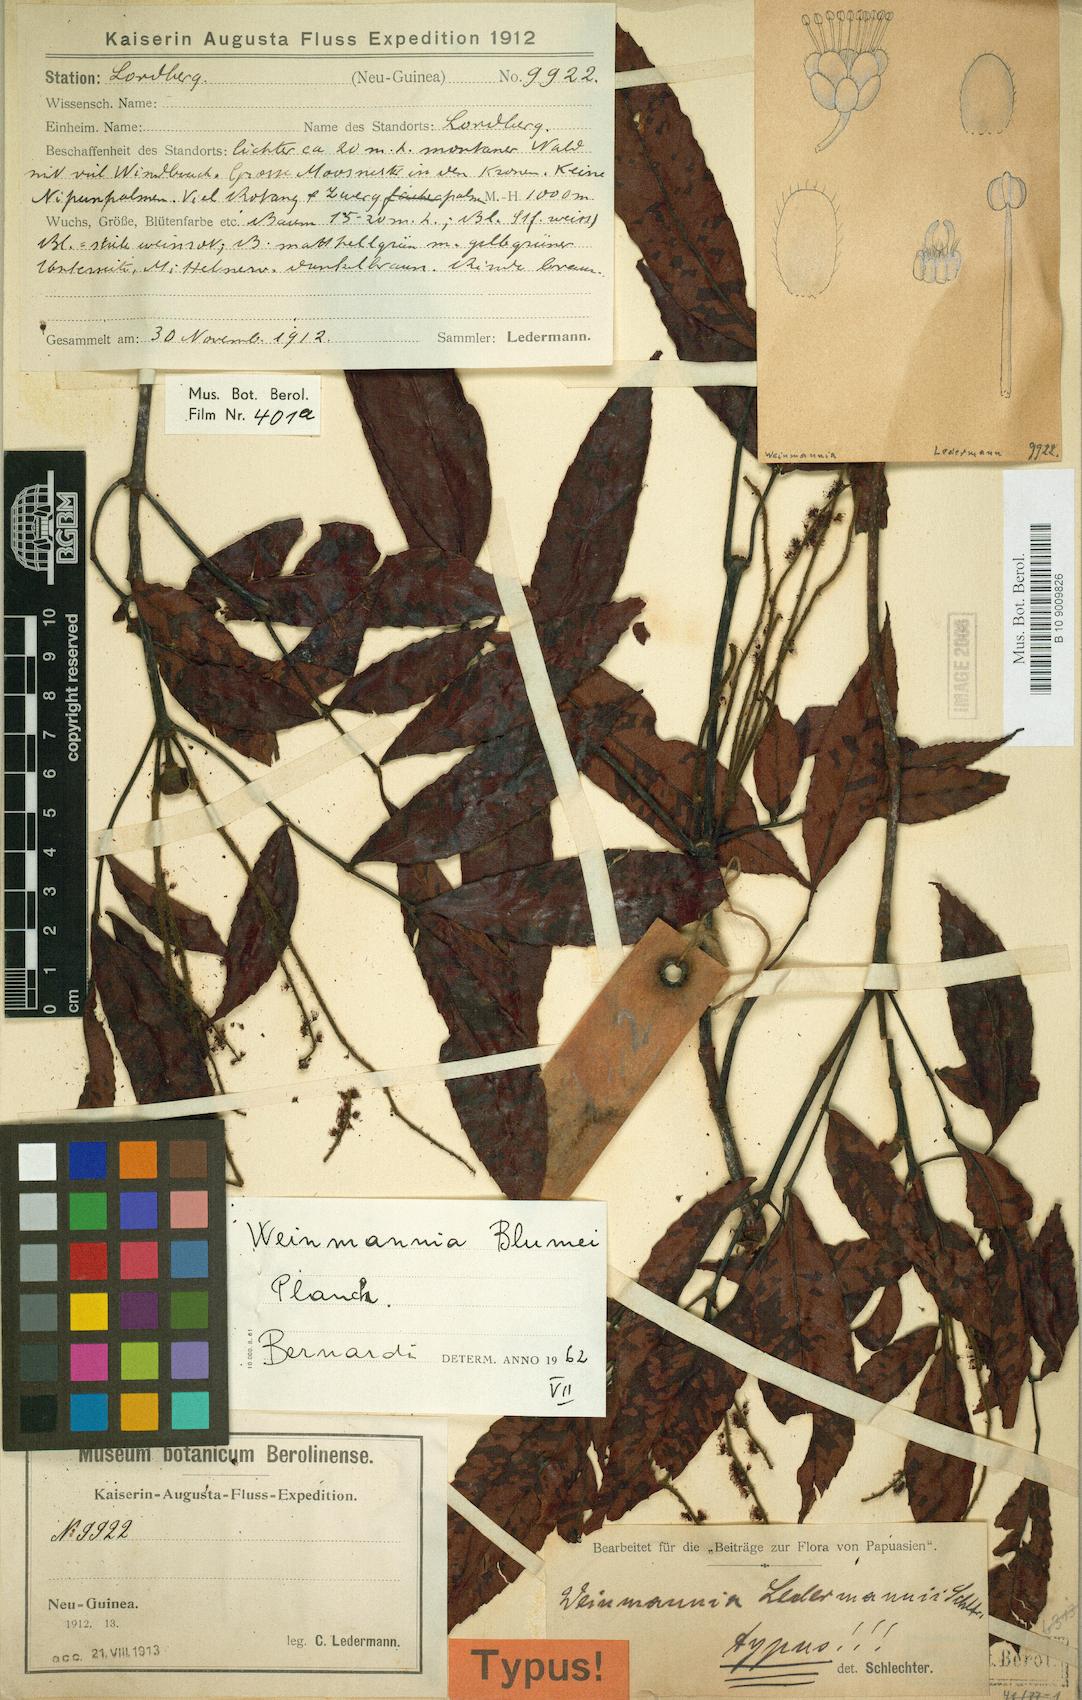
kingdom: Plantae
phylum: Tracheophyta
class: Magnoliopsida
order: Oxalidales
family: Cunoniaceae
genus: Pterophylla
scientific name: Pterophylla fraxinea
